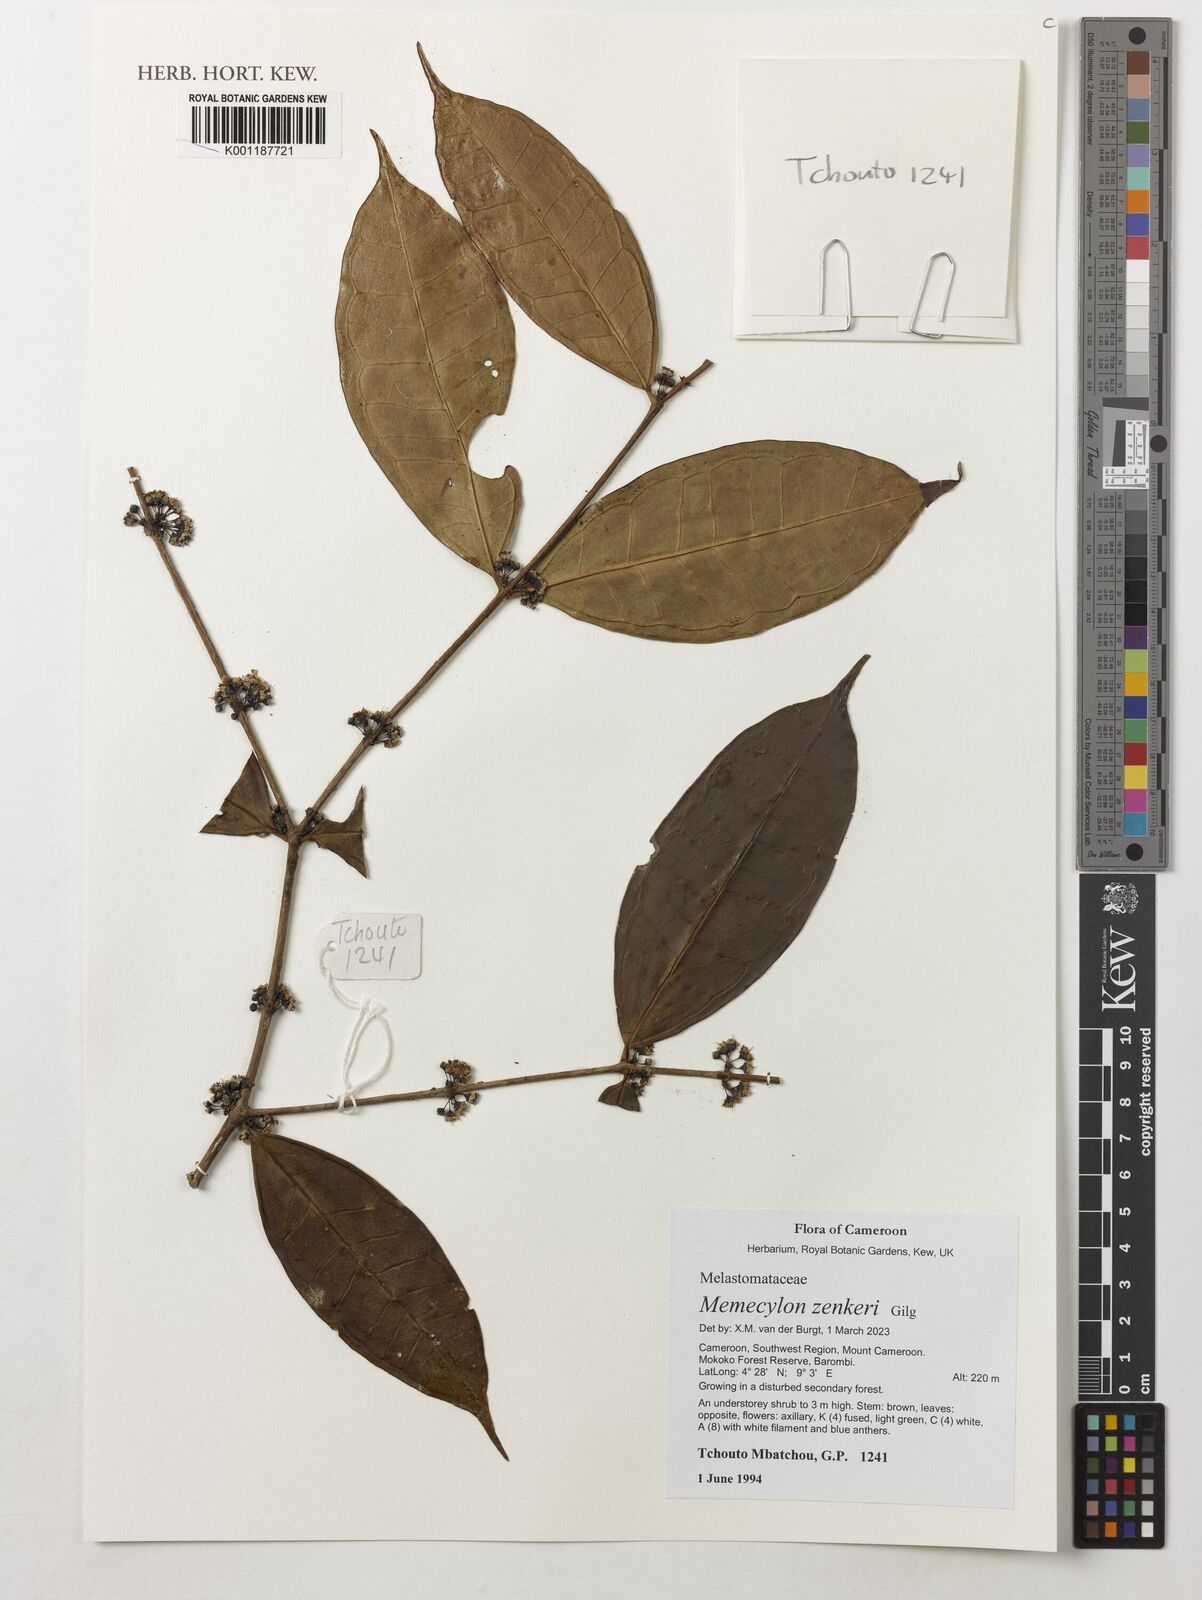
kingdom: Plantae
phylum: Tracheophyta
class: Magnoliopsida
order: Myrtales
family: Melastomataceae
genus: Memecylon
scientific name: Memecylon zenkeri
